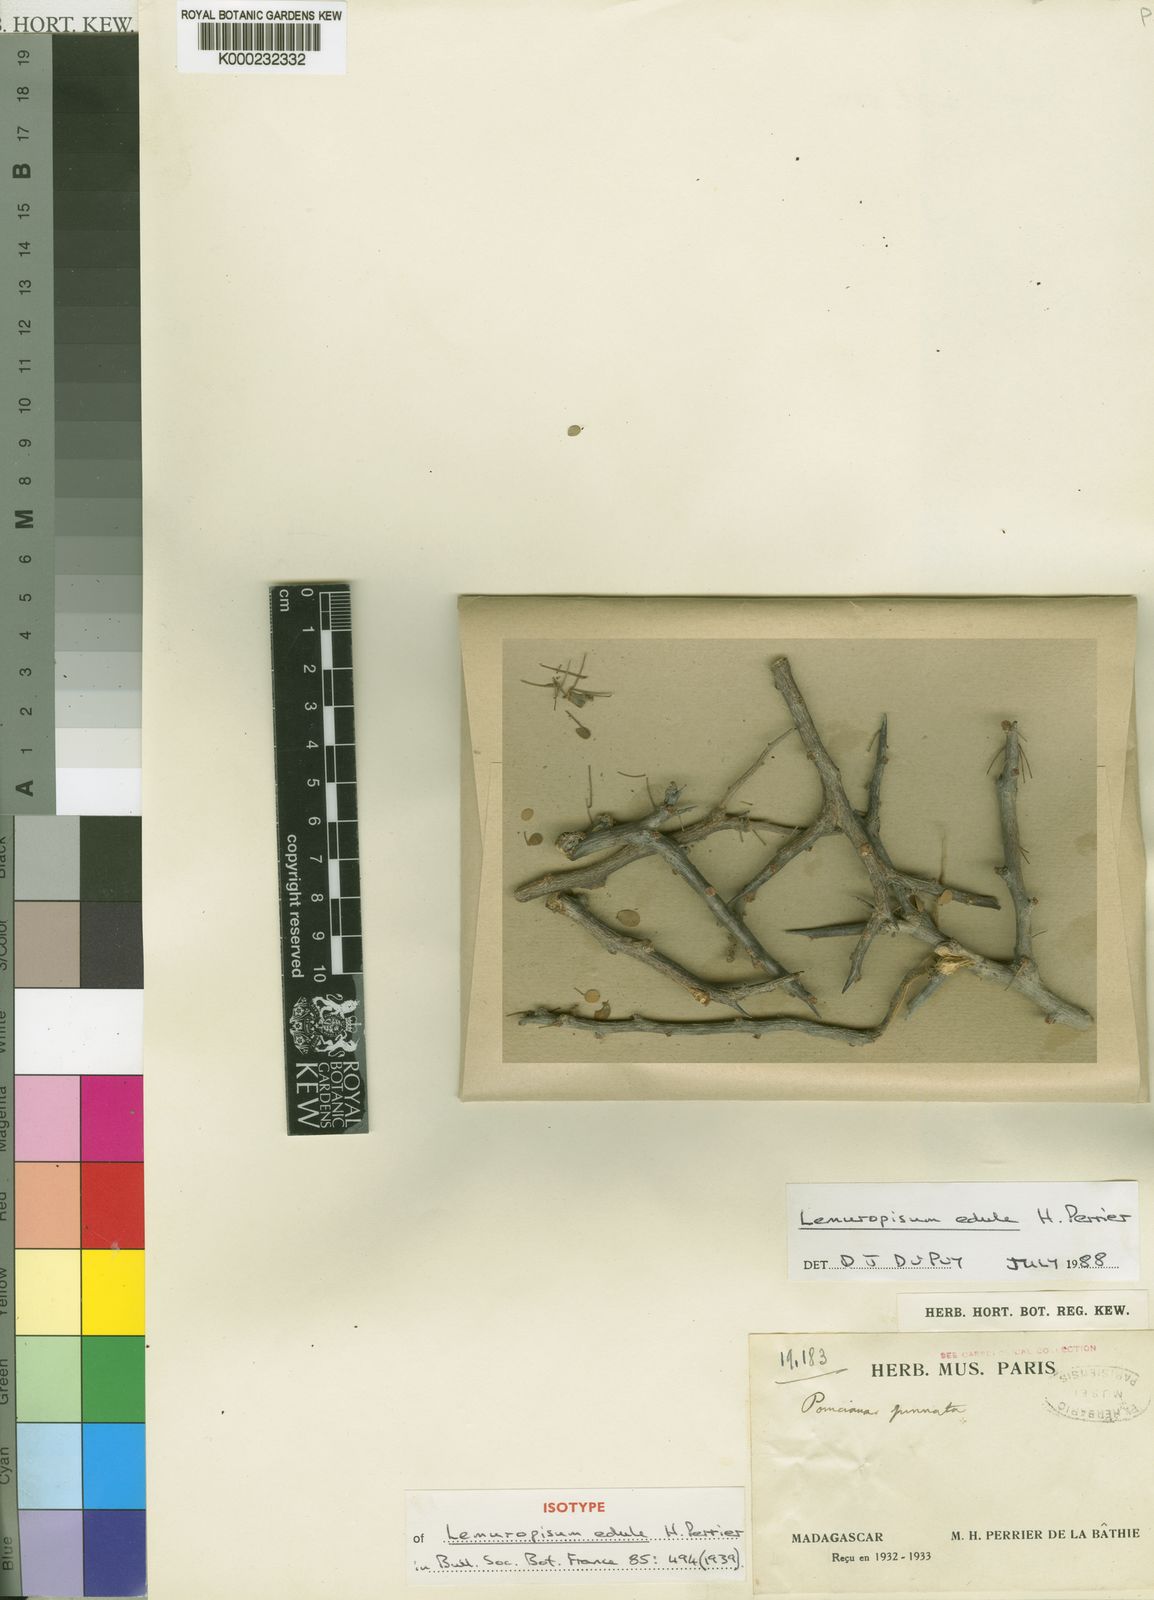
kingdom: Plantae
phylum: Tracheophyta
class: Magnoliopsida
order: Fabales
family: Fabaceae
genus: Delonix
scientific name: Delonix edule
